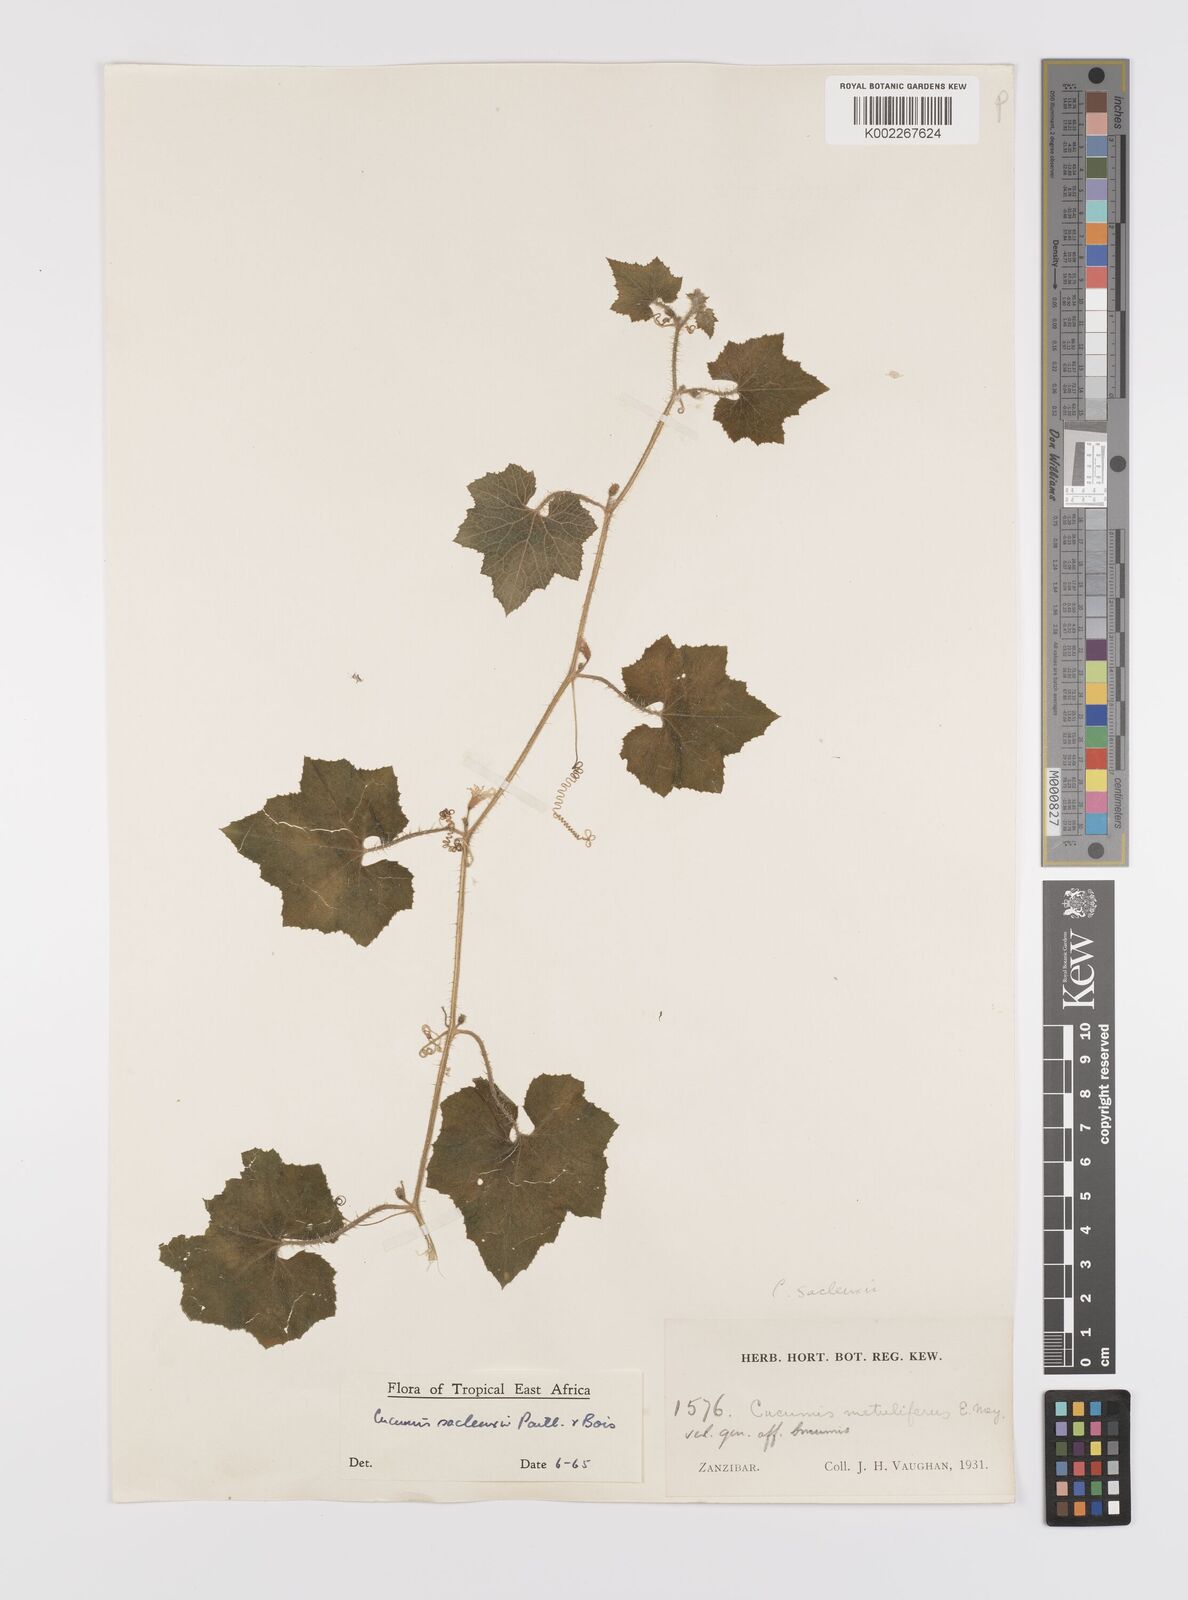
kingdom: Plantae
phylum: Tracheophyta
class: Magnoliopsida
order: Cucurbitales
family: Cucurbitaceae
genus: Cucumis
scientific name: Cucumis sacleuxii
